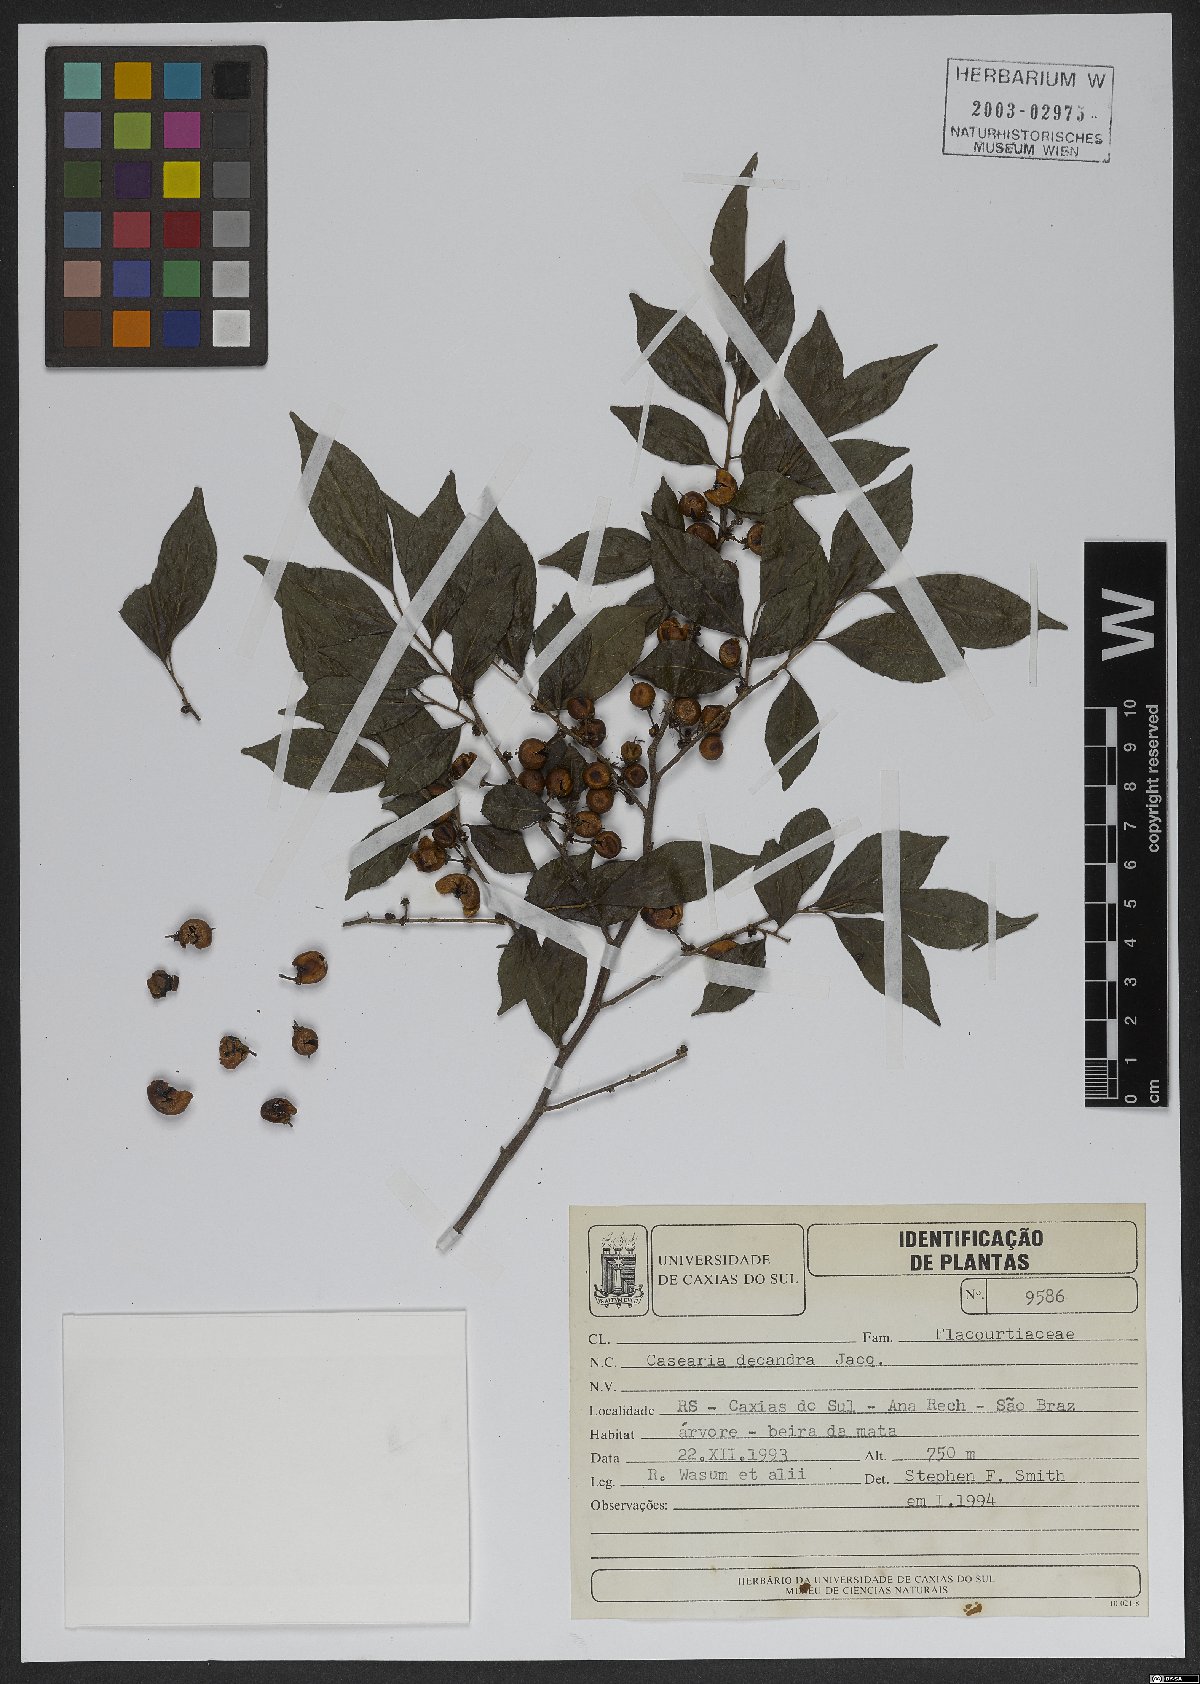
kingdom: Plantae
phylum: Tracheophyta
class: Magnoliopsida
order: Malpighiales
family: Salicaceae
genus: Casearia
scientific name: Casearia decandra
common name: Crack open
